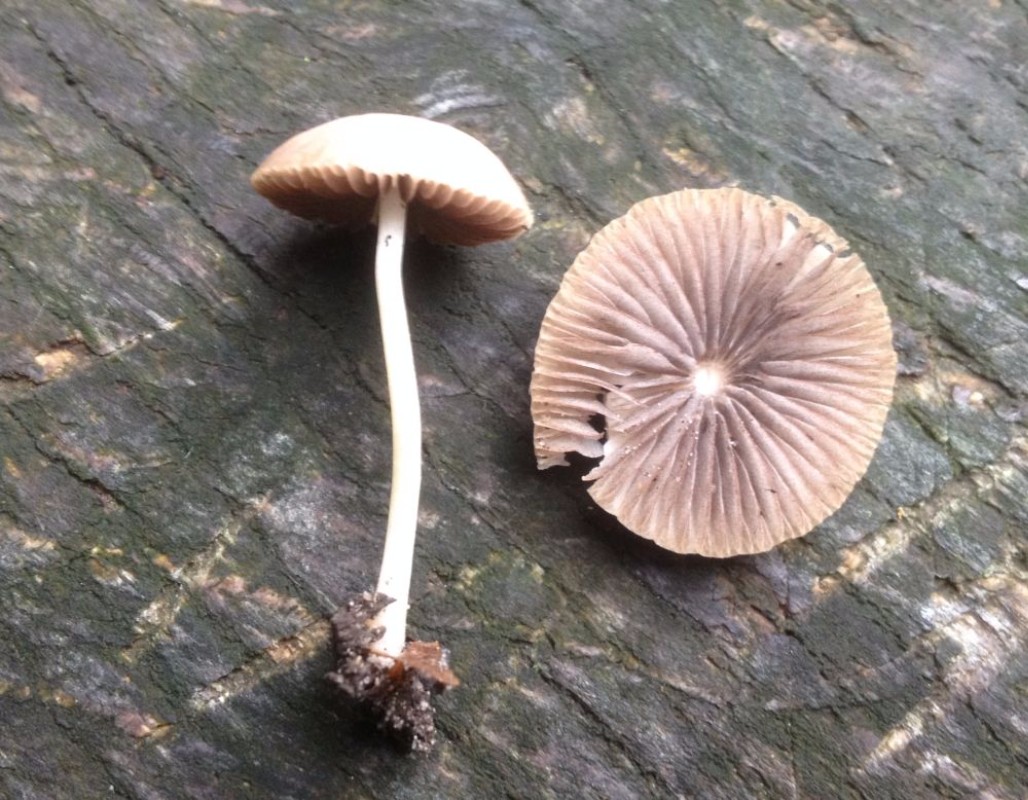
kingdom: Fungi
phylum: Basidiomycota
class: Agaricomycetes
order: Agaricales
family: Psathyrellaceae
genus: Lacrymaria
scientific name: Lacrymaria
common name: mørkhat
